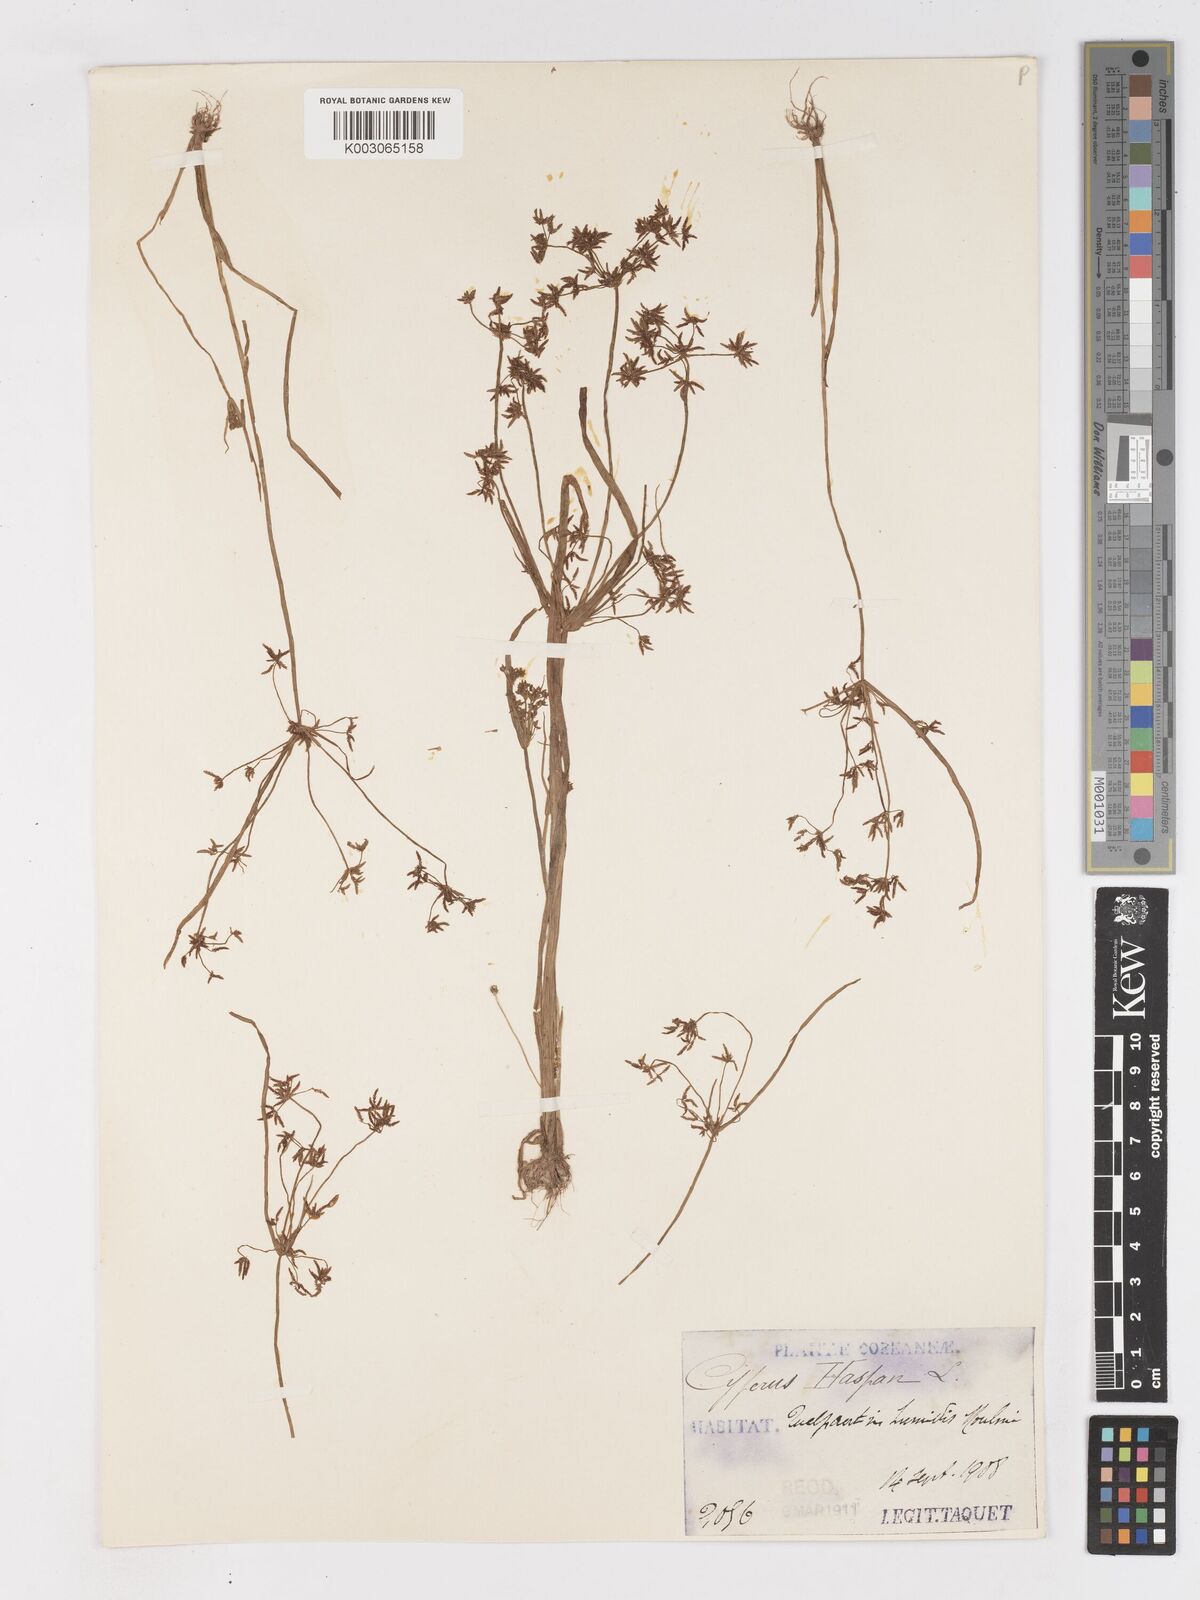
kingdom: Plantae
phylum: Tracheophyta
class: Liliopsida
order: Poales
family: Cyperaceae
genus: Cyperus
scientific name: Cyperus haspan
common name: Haspan flatsedge
